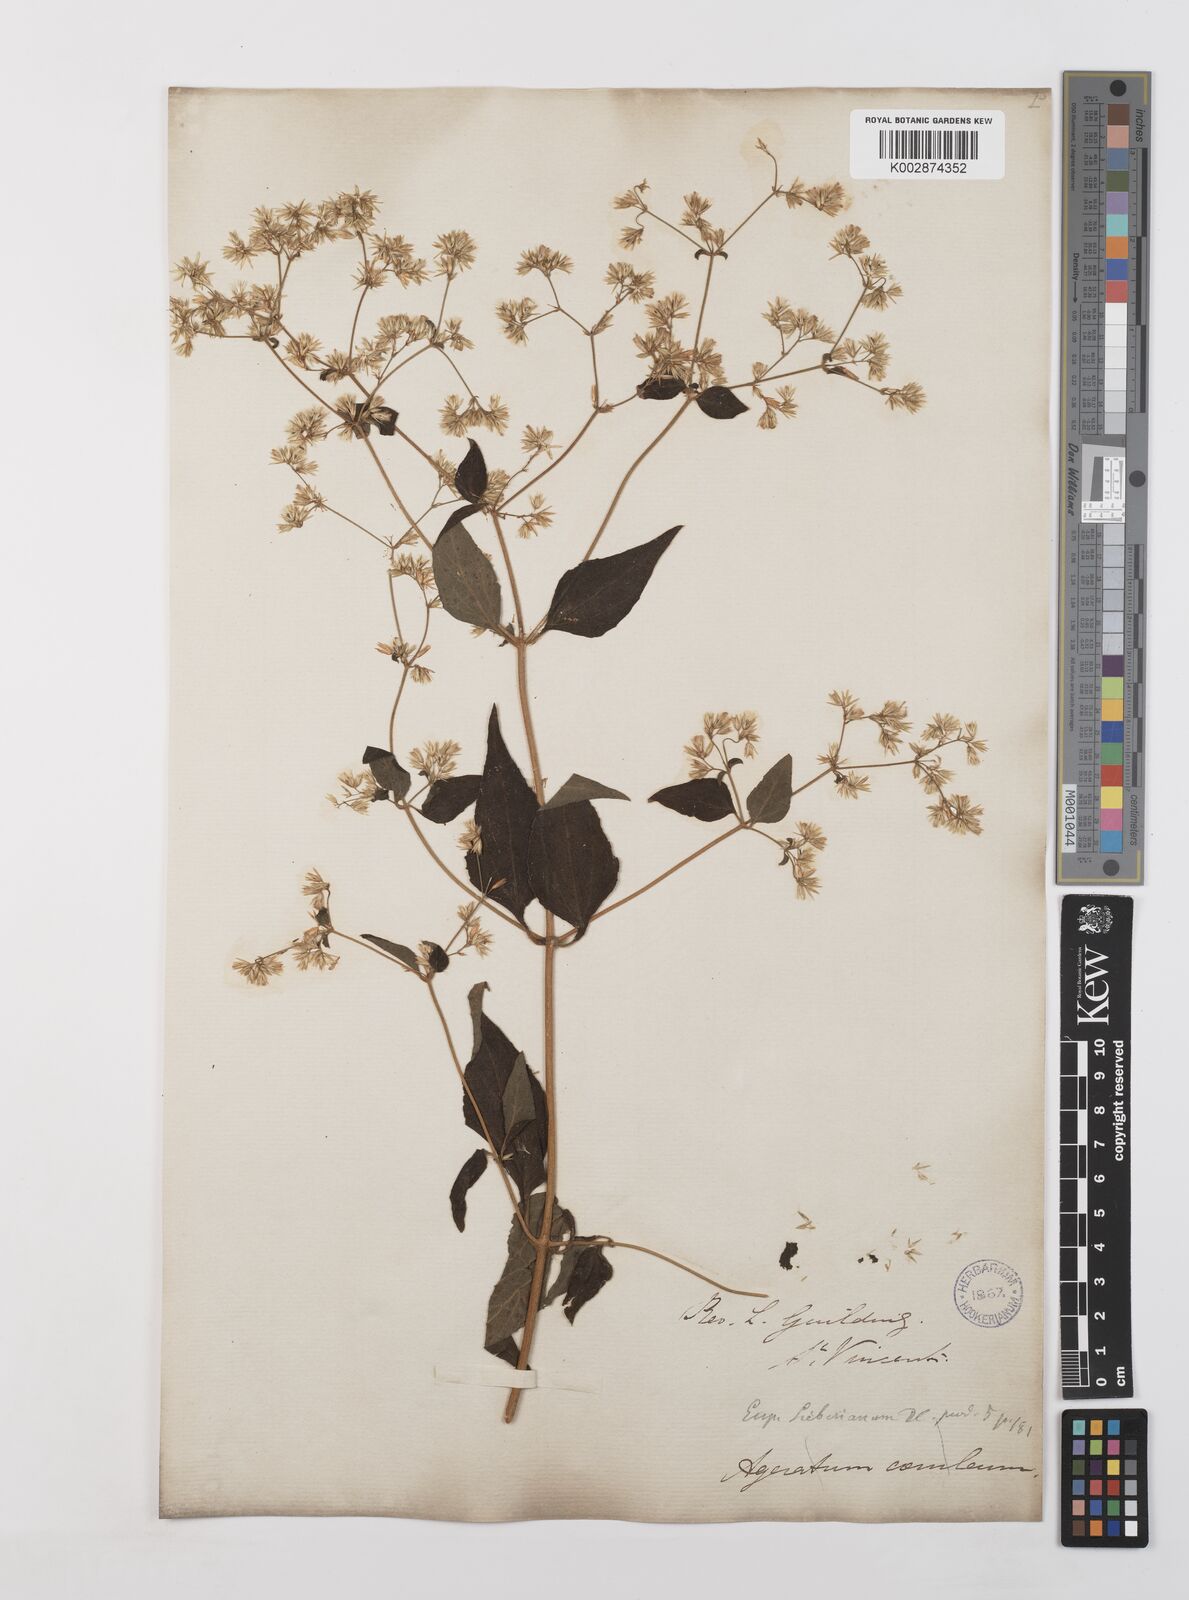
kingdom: Plantae
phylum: Tracheophyta
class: Magnoliopsida
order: Asterales
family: Asteraceae
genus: Condylidium
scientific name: Condylidium iresinoides
